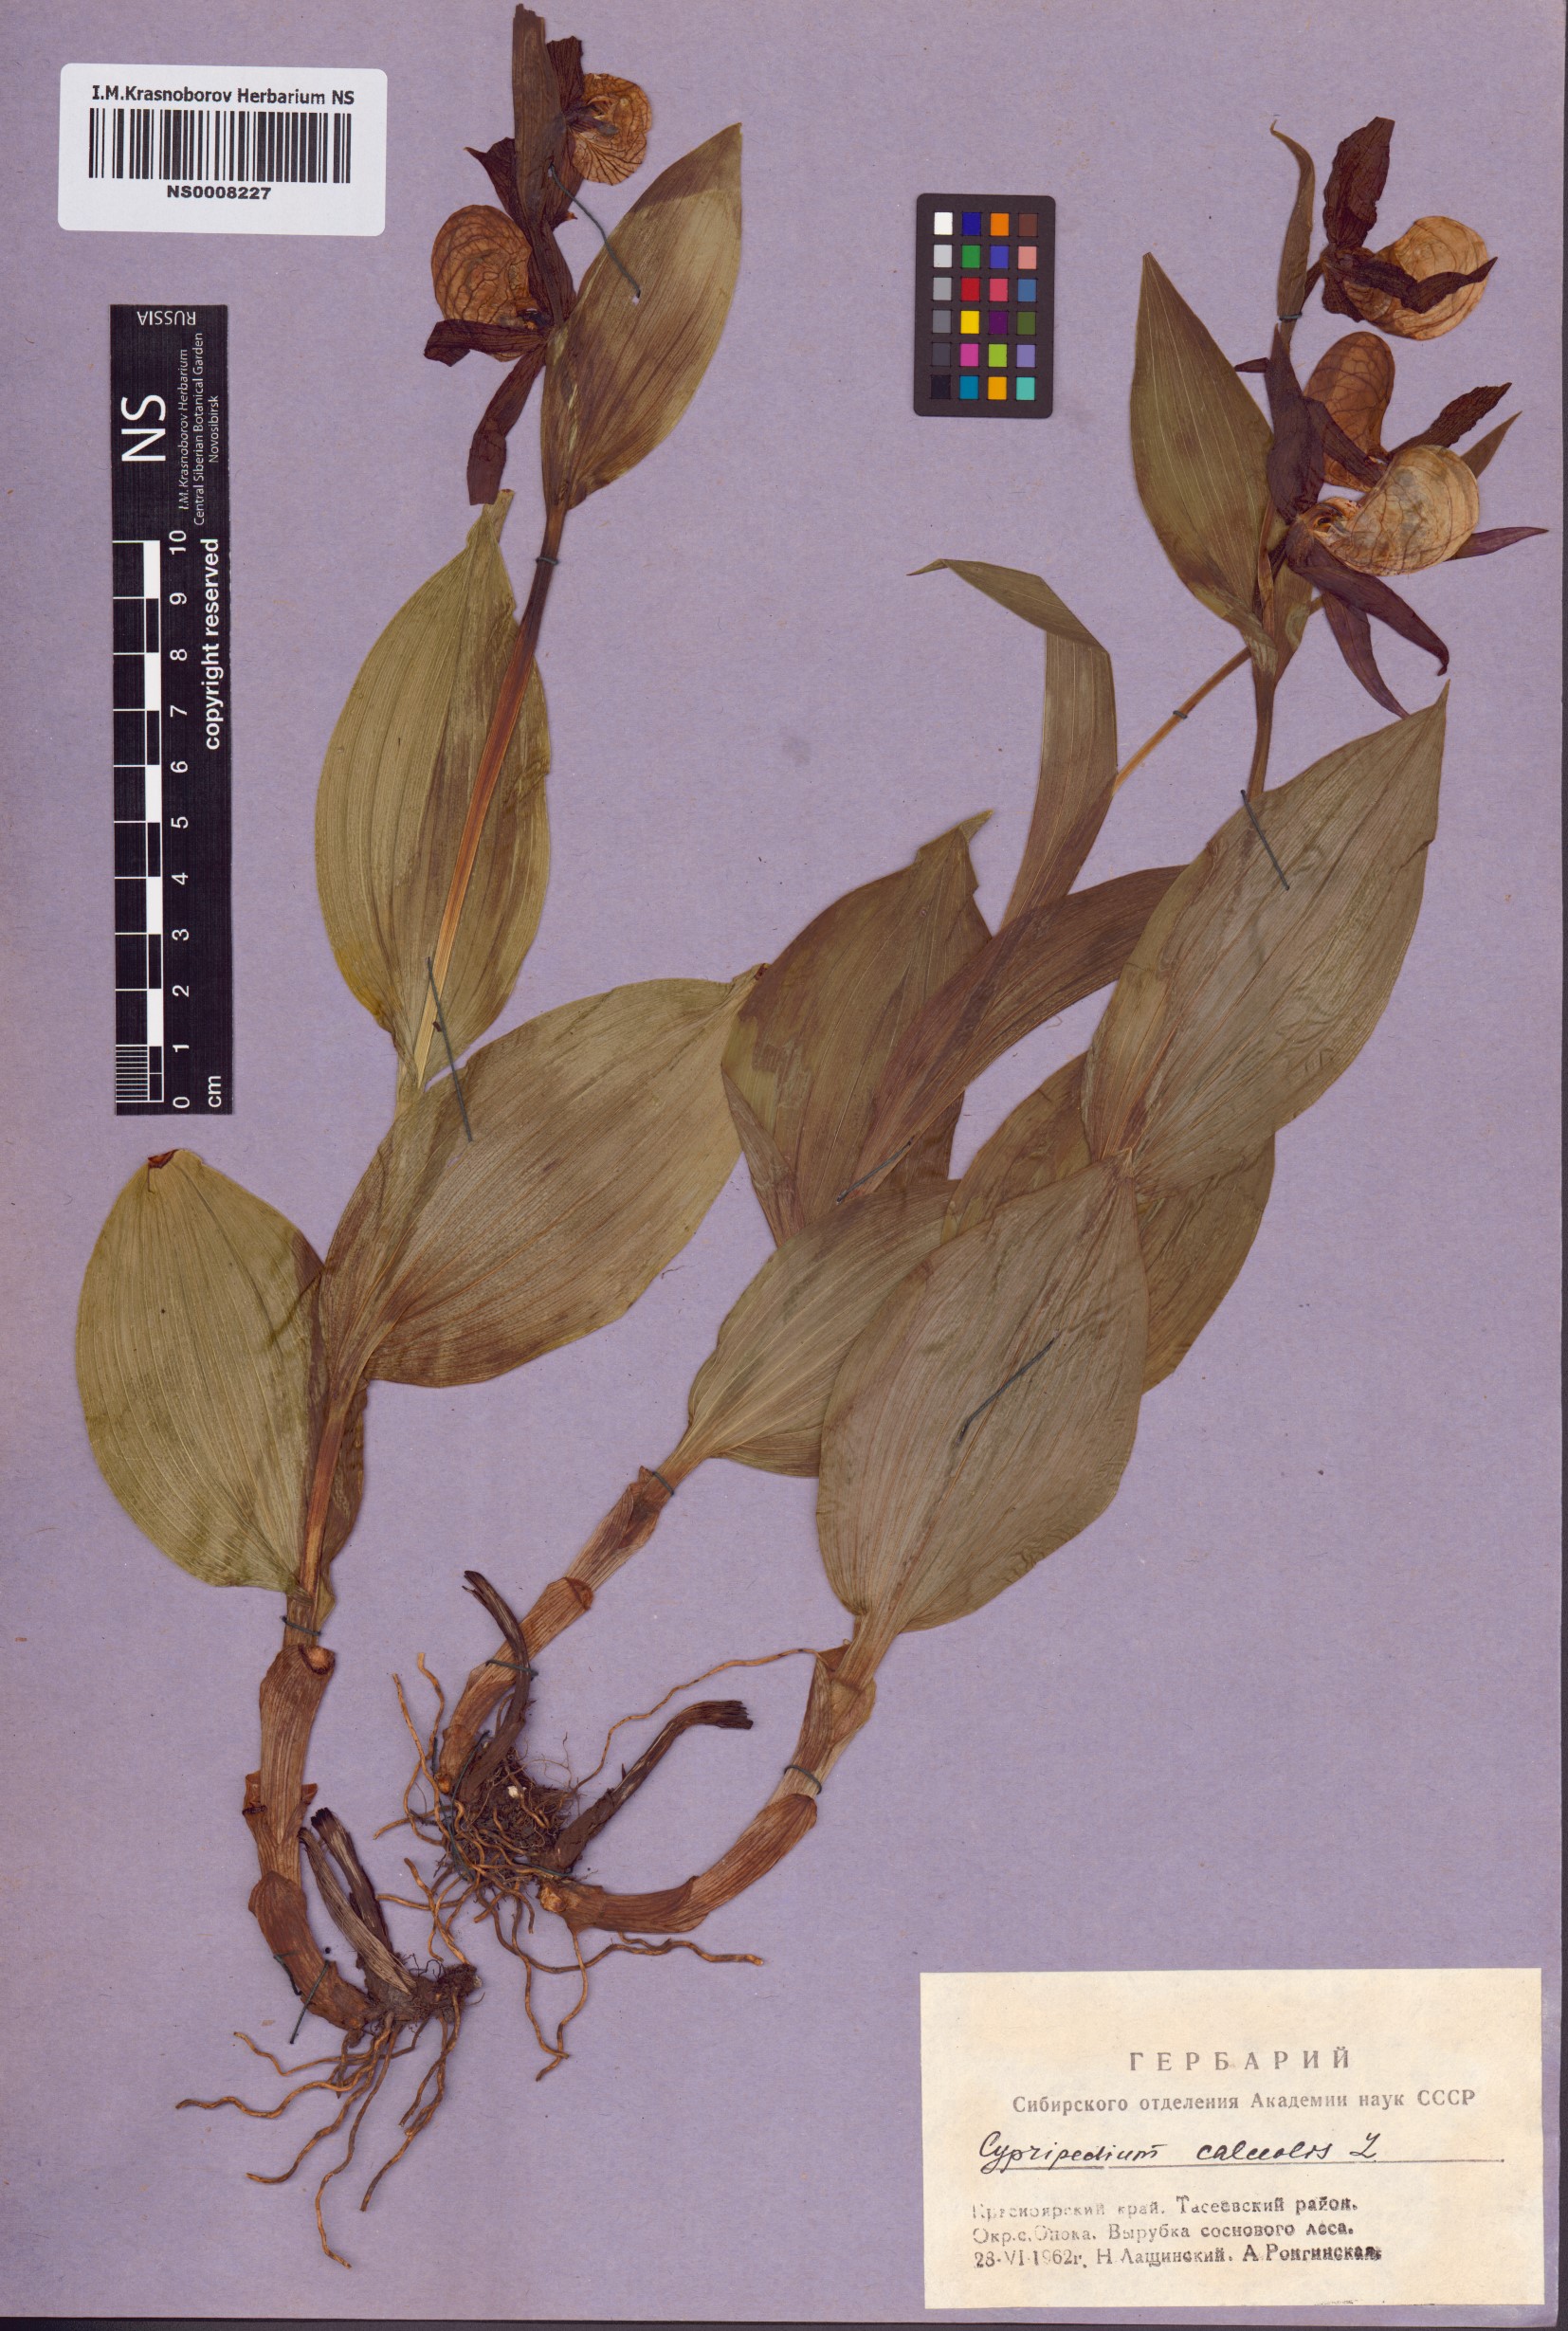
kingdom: Plantae
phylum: Tracheophyta
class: Liliopsida
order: Asparagales
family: Orchidaceae
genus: Cypripedium
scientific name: Cypripedium calceolus
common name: Lady's-slipper
